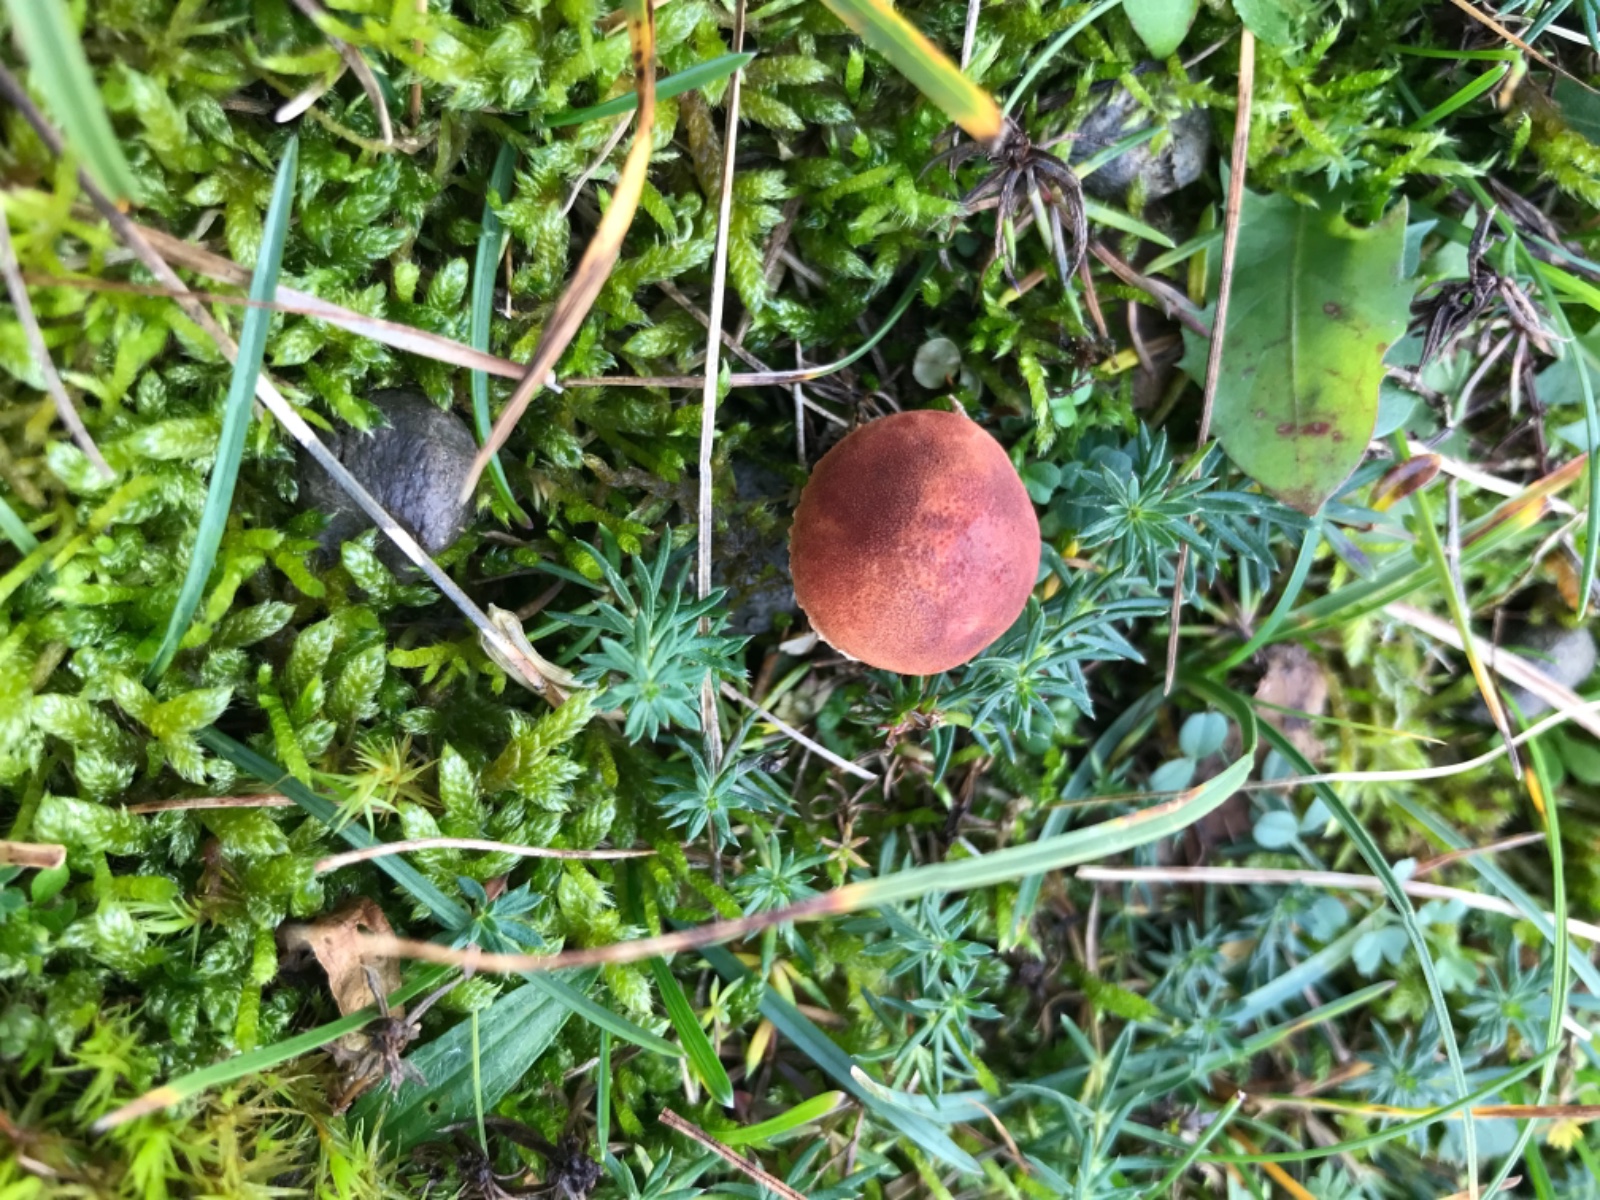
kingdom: Fungi
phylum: Basidiomycota
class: Agaricomycetes
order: Agaricales
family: Agaricaceae
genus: Cystodermella
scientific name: Cystodermella adnatifolia
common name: koralrød grynhat
